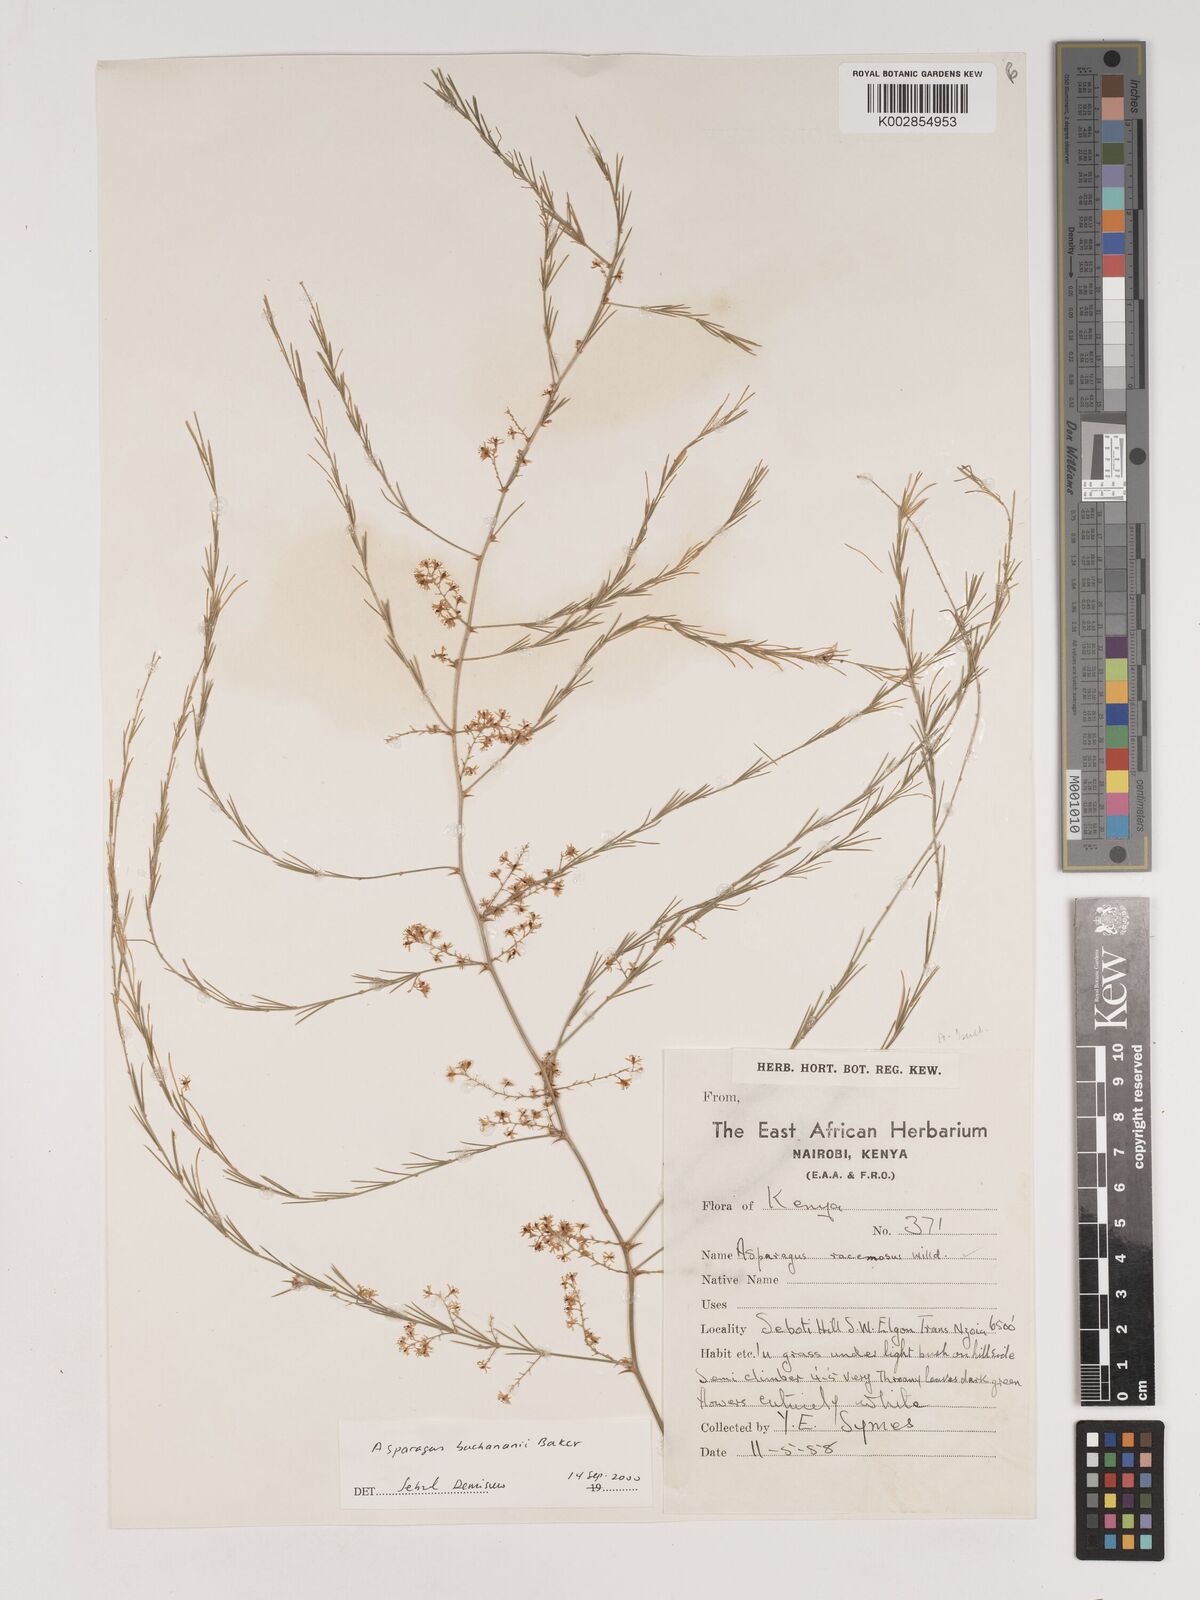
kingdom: Plantae
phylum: Tracheophyta
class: Liliopsida
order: Asparagales
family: Asparagaceae
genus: Asparagus
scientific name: Asparagus buchananii
